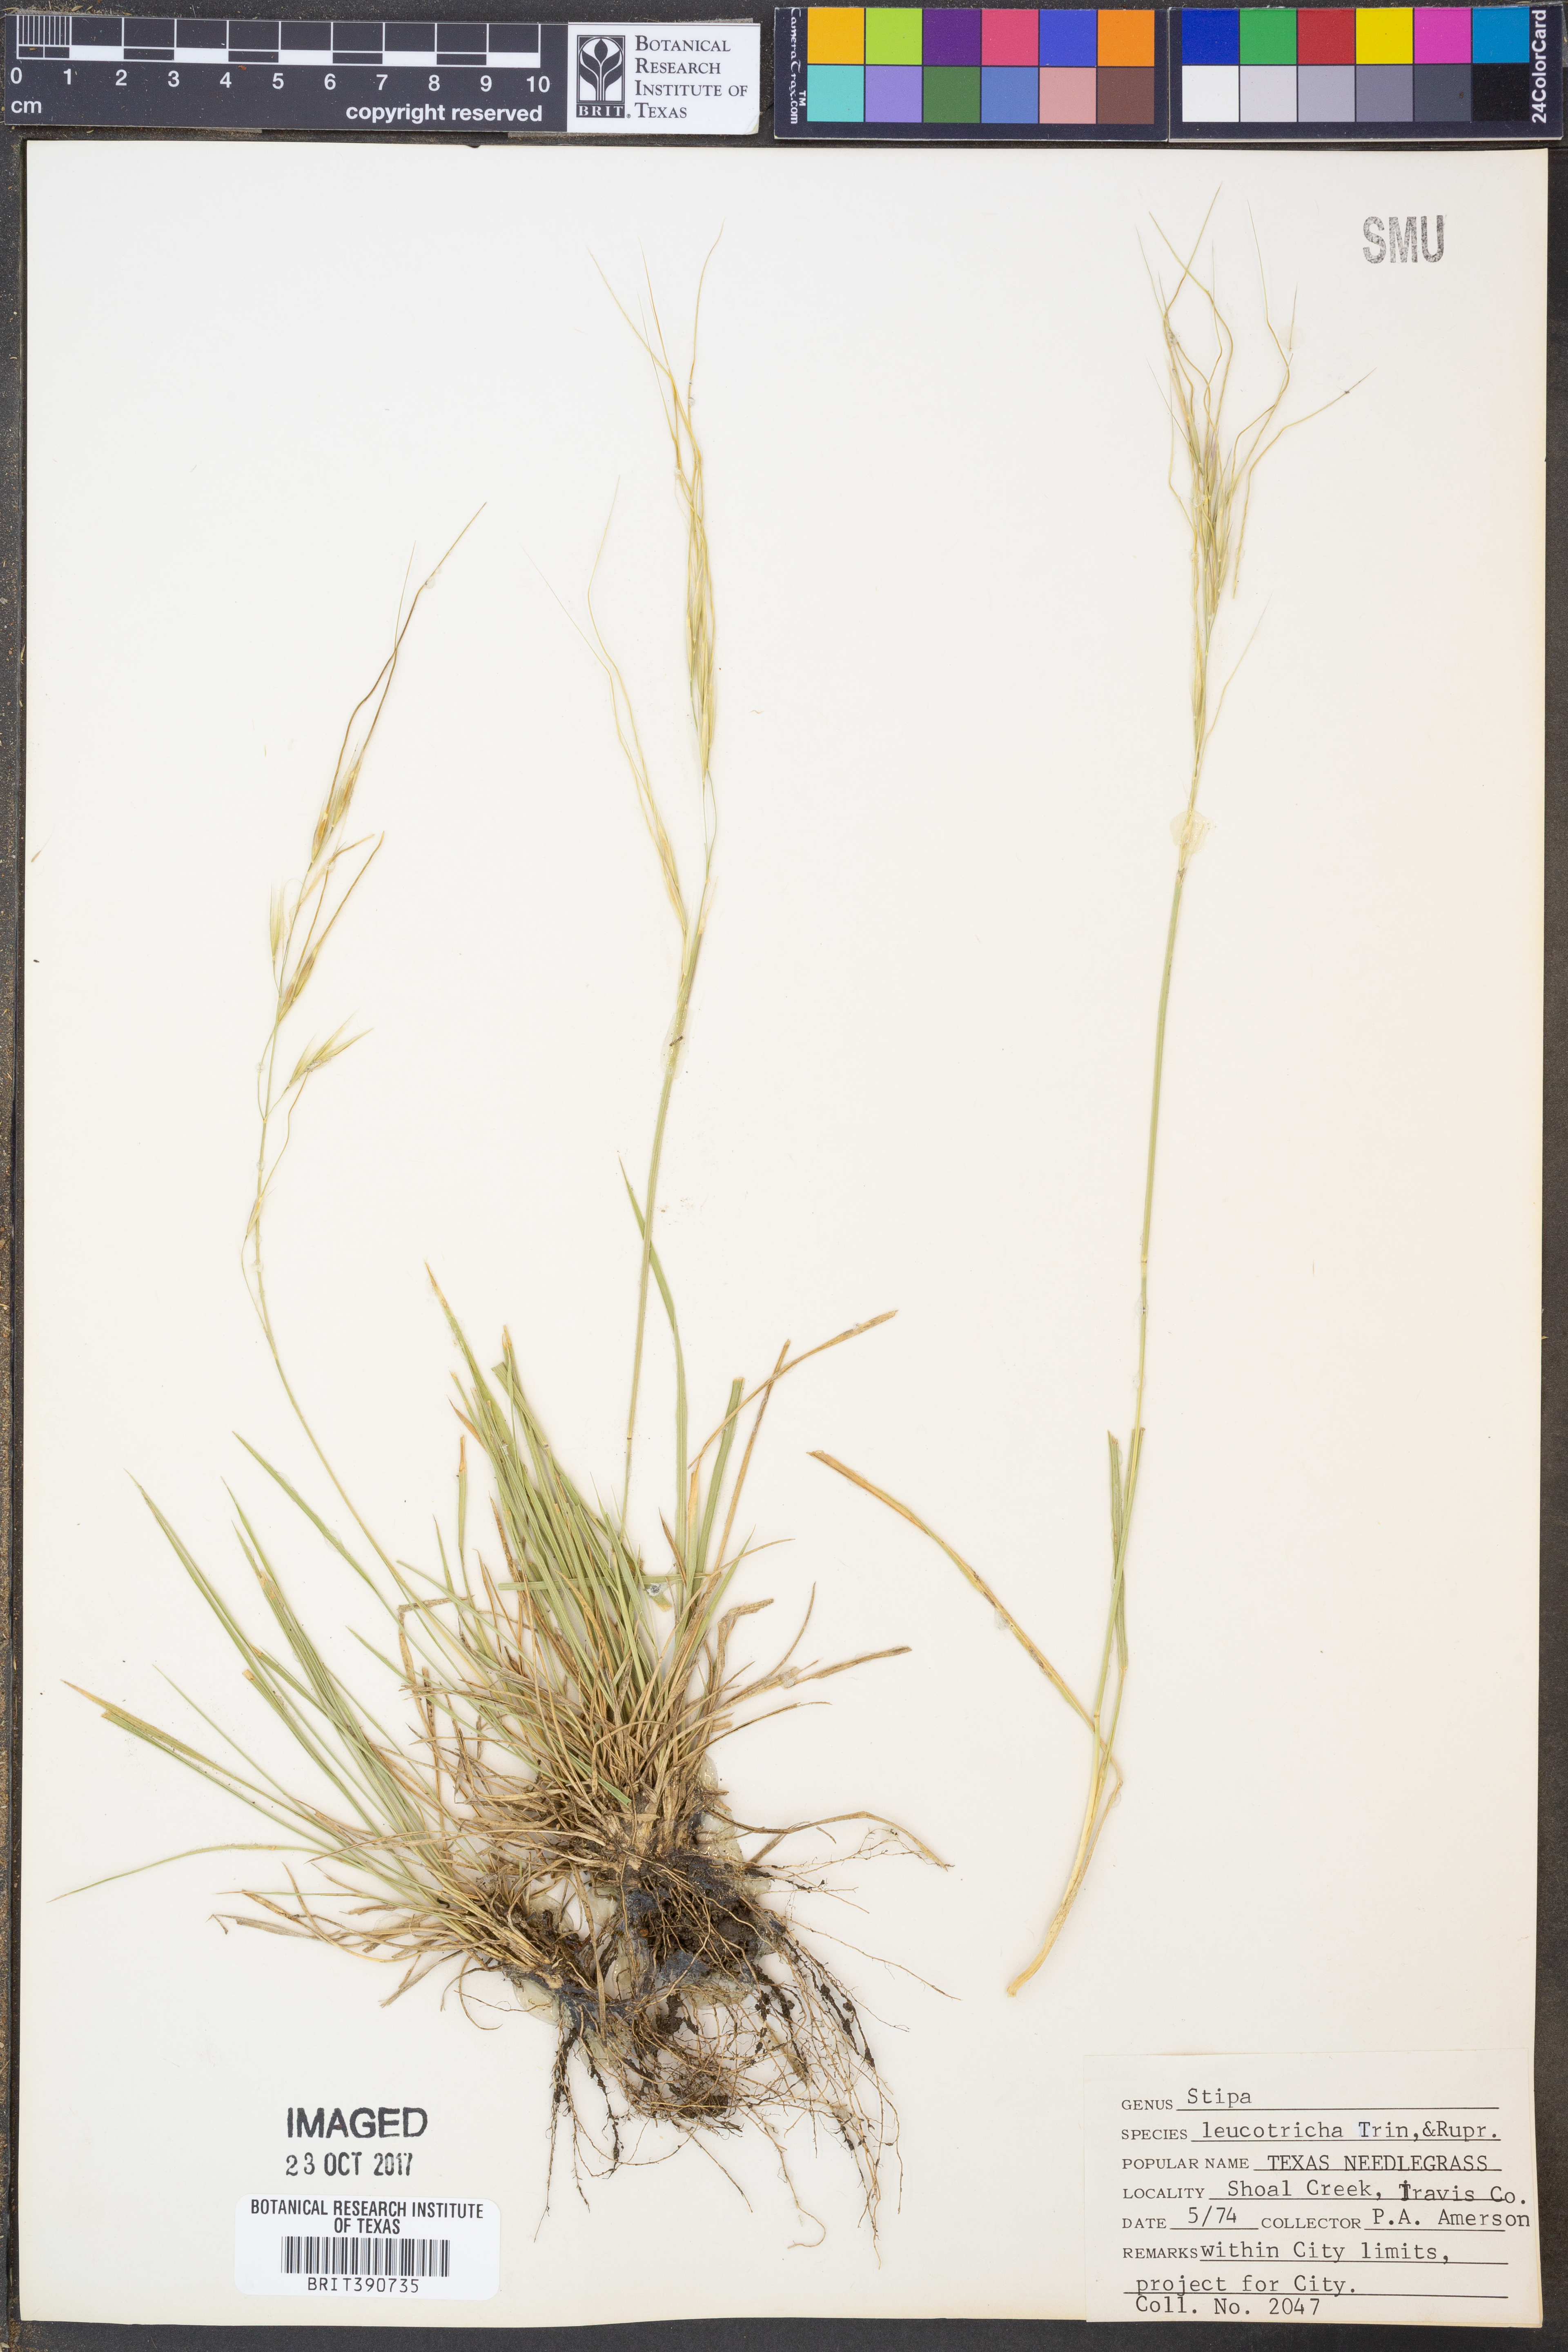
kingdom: Plantae
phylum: Tracheophyta
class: Liliopsida
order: Poales
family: Poaceae
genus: Nassella
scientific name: Nassella leucotricha
